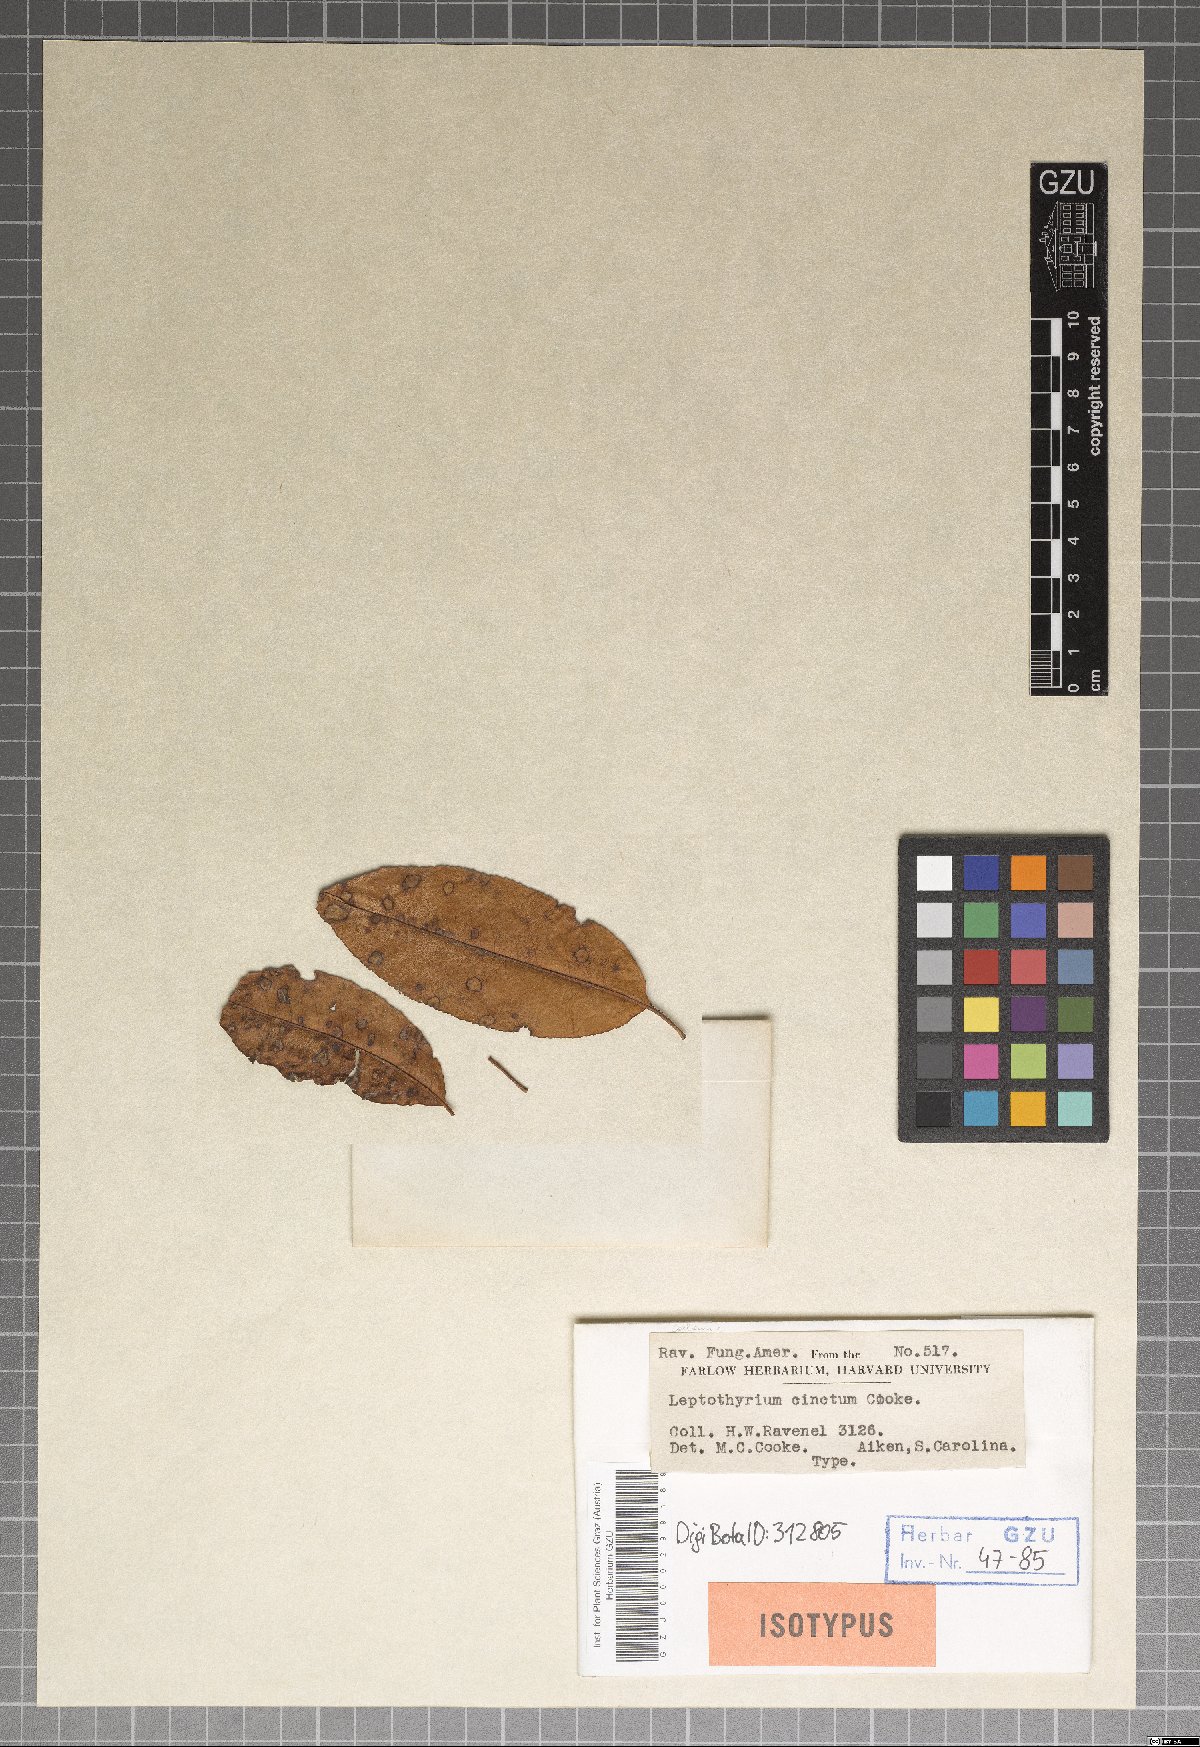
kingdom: Fungi
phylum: Ascomycota
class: Dothideomycetes
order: Pleosporales
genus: Leptothyrium
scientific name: Leptothyrium
